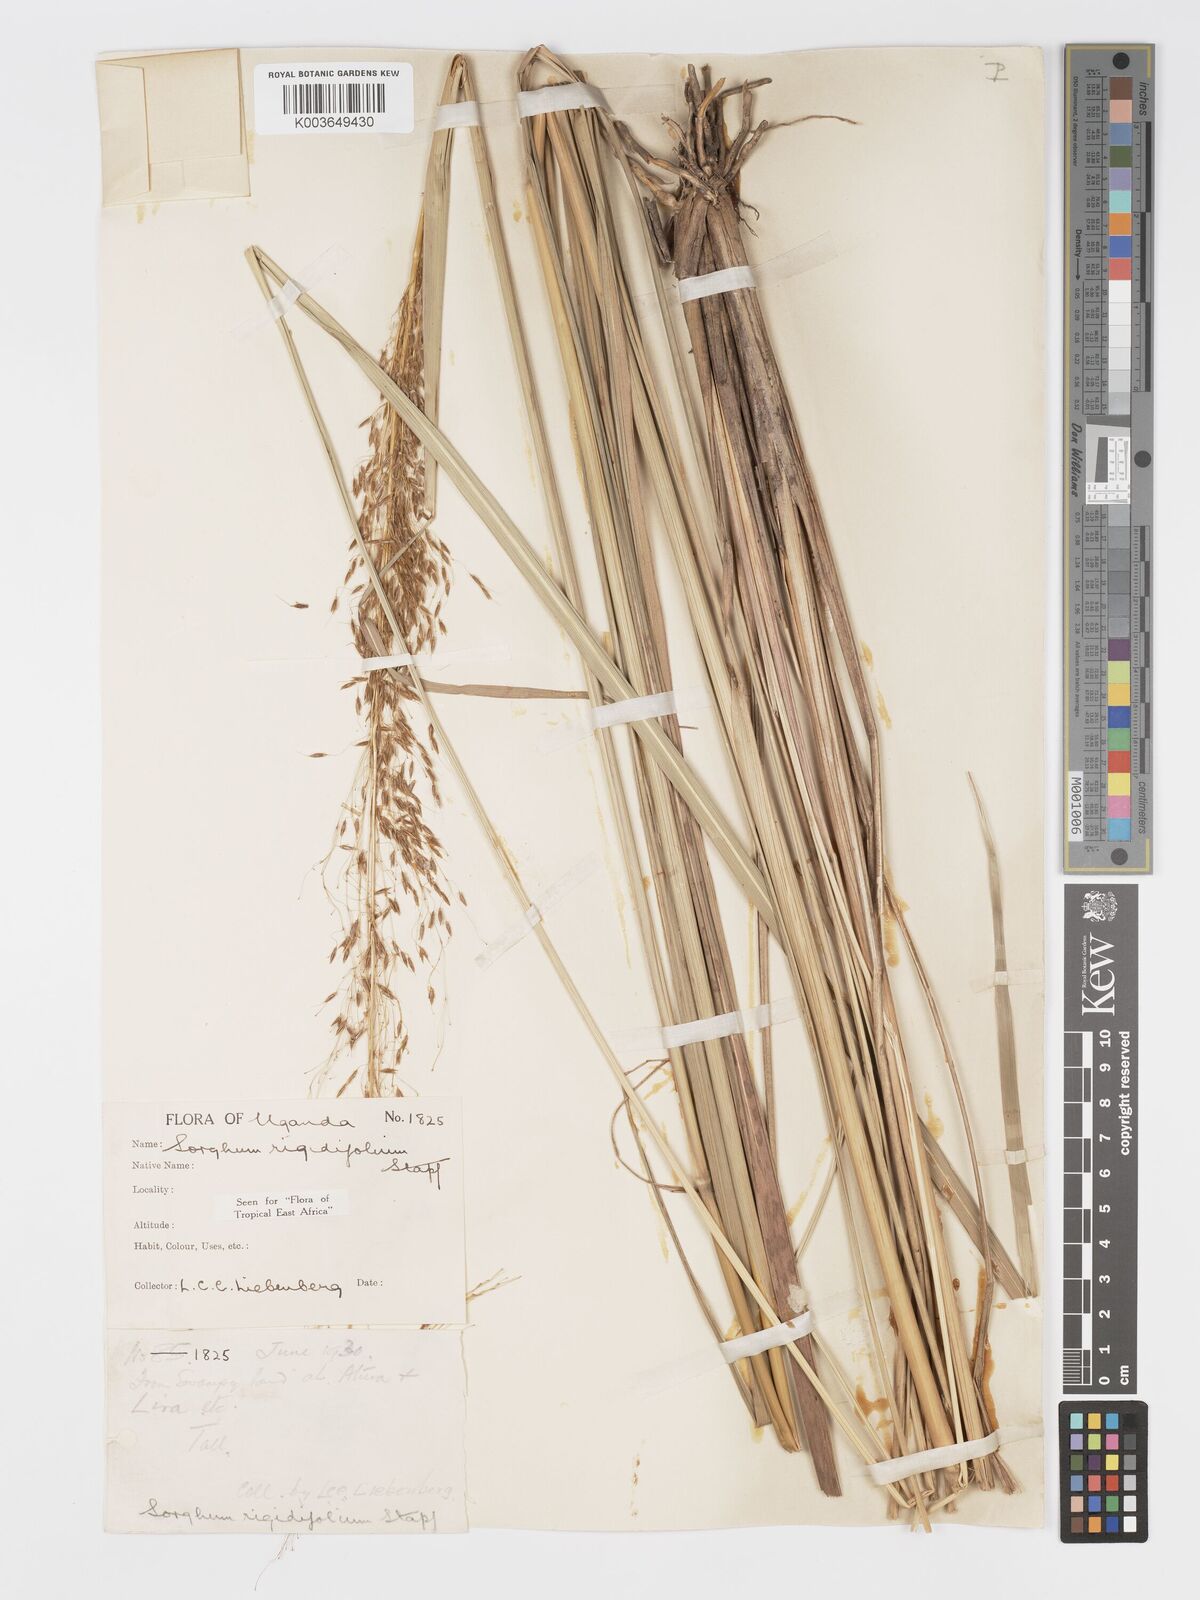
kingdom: Plantae
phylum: Tracheophyta
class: Liliopsida
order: Poales
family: Poaceae
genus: Sorghastrum
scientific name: Sorghastrum stipoides
